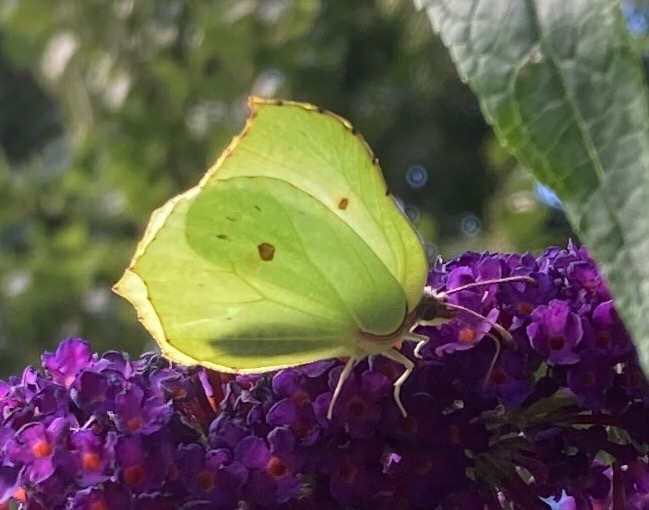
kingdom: Animalia
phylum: Arthropoda
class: Insecta
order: Lepidoptera
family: Pieridae
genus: Gonepteryx
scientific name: Gonepteryx rhamni
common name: Citronsommerfugl
